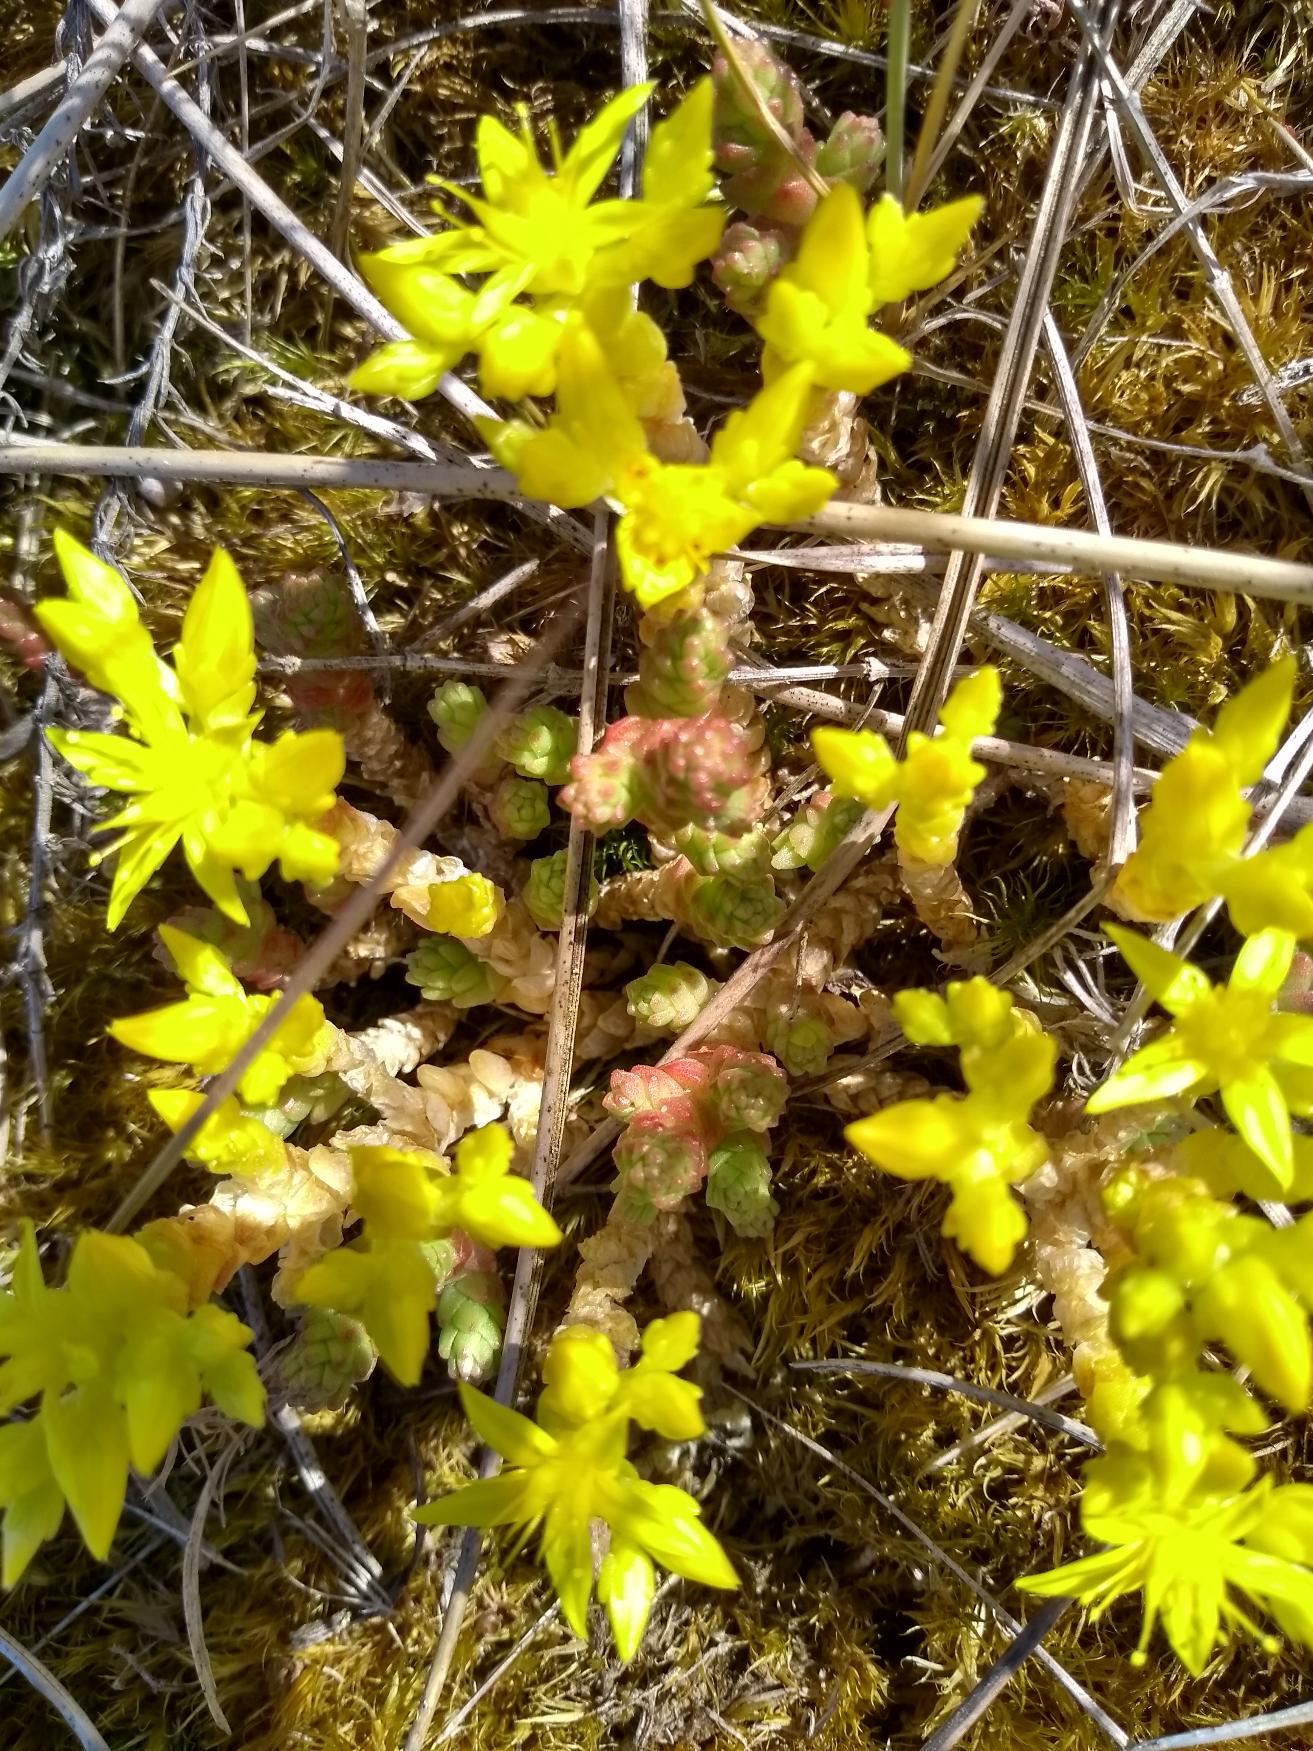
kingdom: Plantae
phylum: Tracheophyta
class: Magnoliopsida
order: Saxifragales
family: Crassulaceae
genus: Sedum
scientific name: Sedum acre
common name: Bidende stenurt
